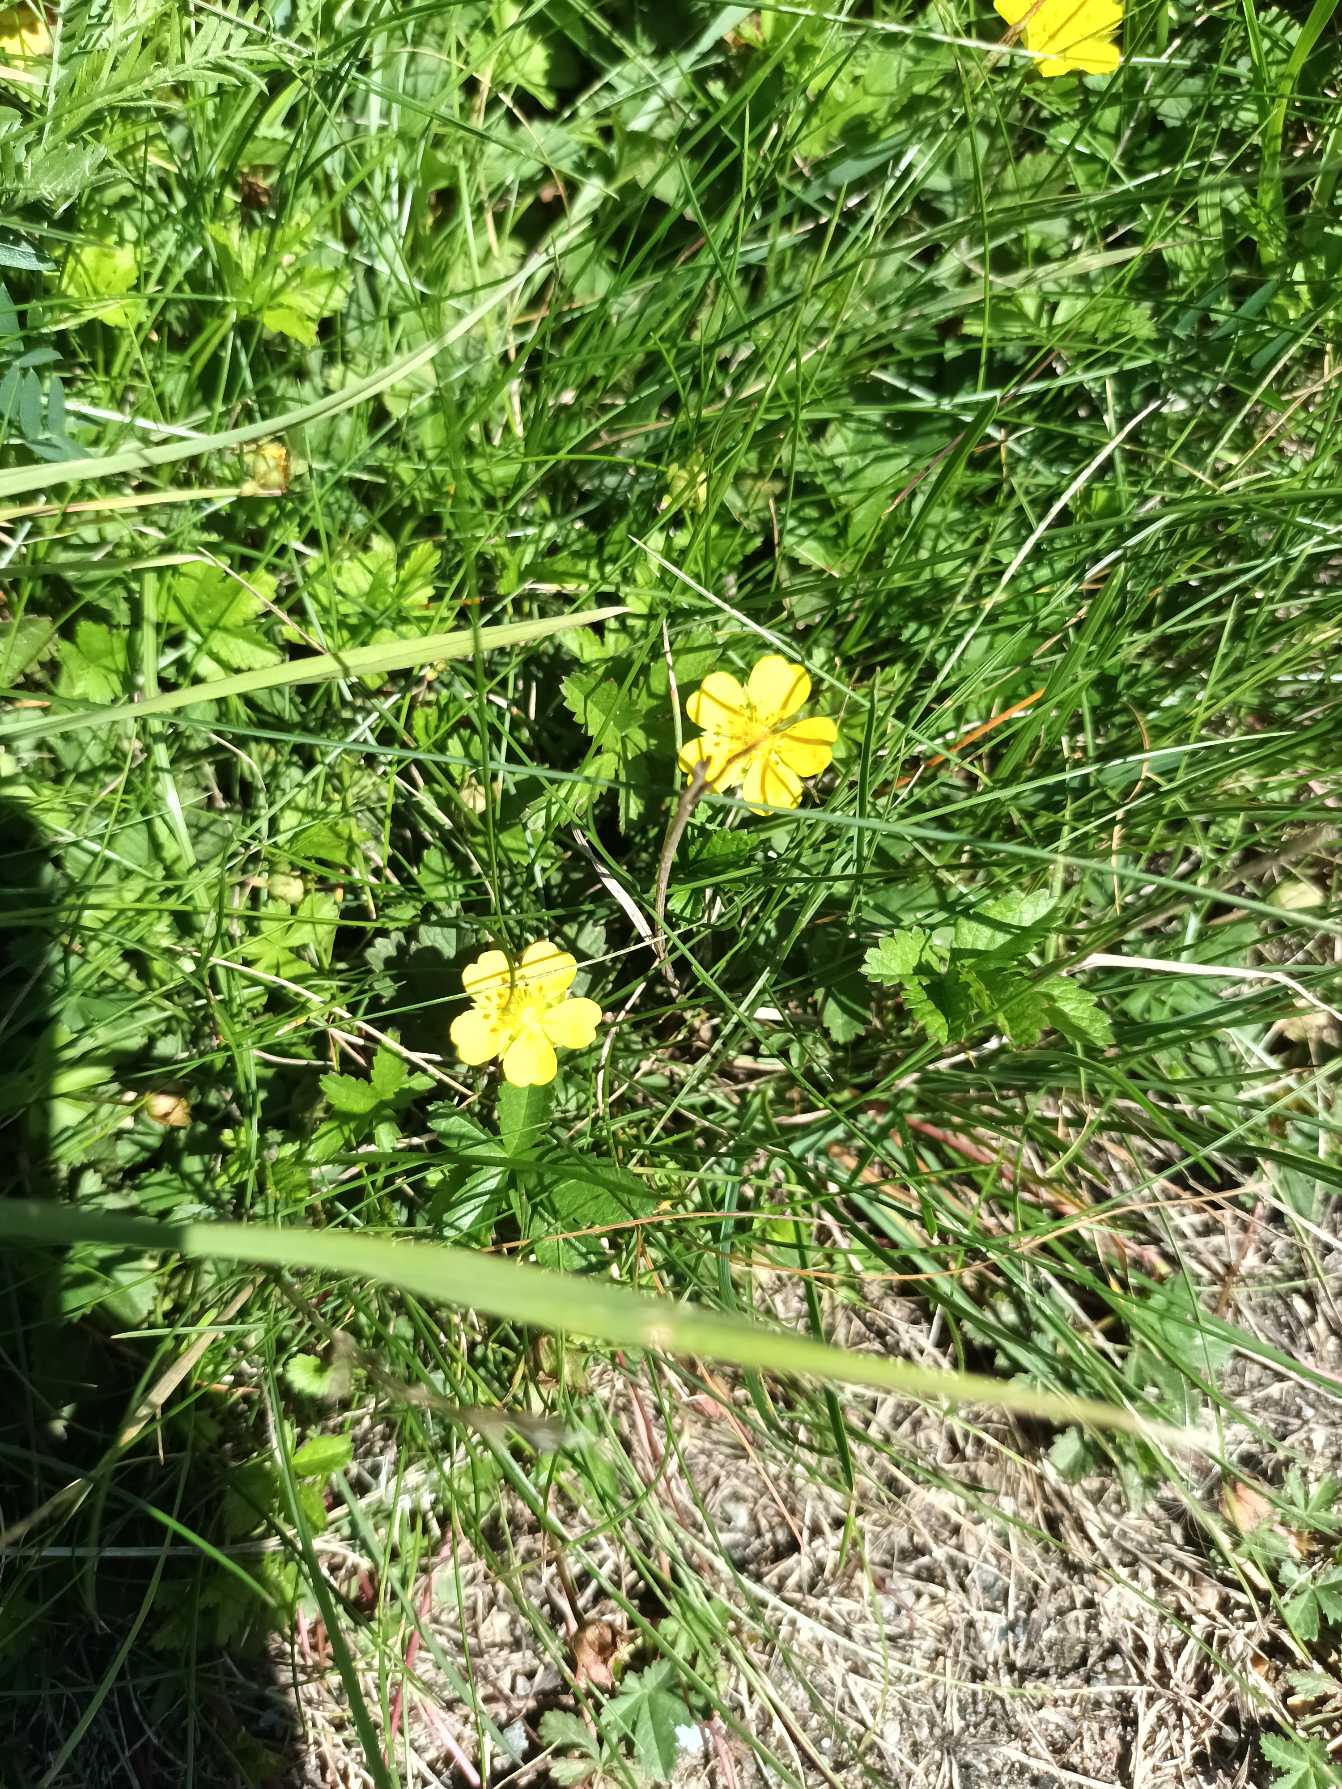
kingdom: Plantae
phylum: Tracheophyta
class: Magnoliopsida
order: Rosales
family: Rosaceae
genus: Potentilla
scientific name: Potentilla reptans
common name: Krybende potentil
